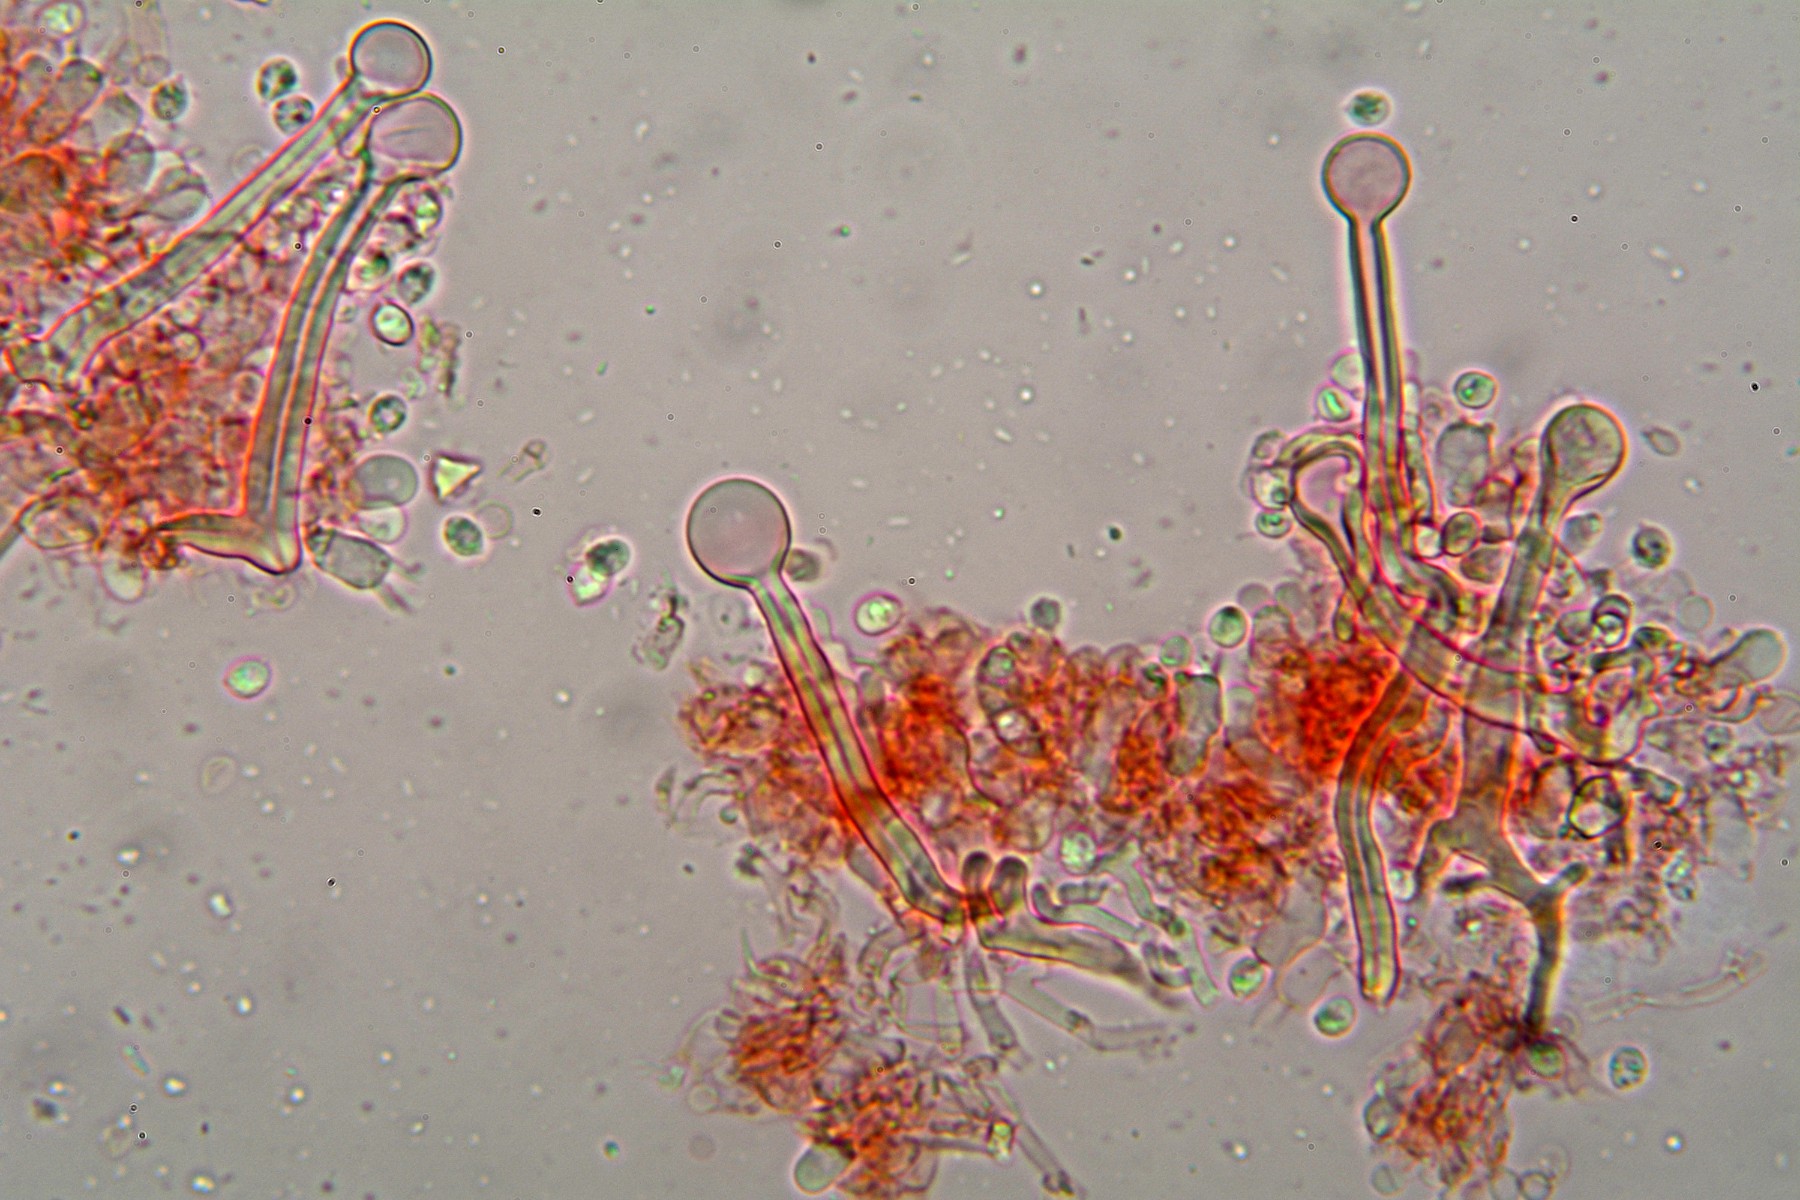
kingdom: Fungi
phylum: Basidiomycota
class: Agaricomycetes
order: Hymenochaetales
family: Hymenochaetaceae
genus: Tubulicrinis
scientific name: Tubulicrinis thermometrus
